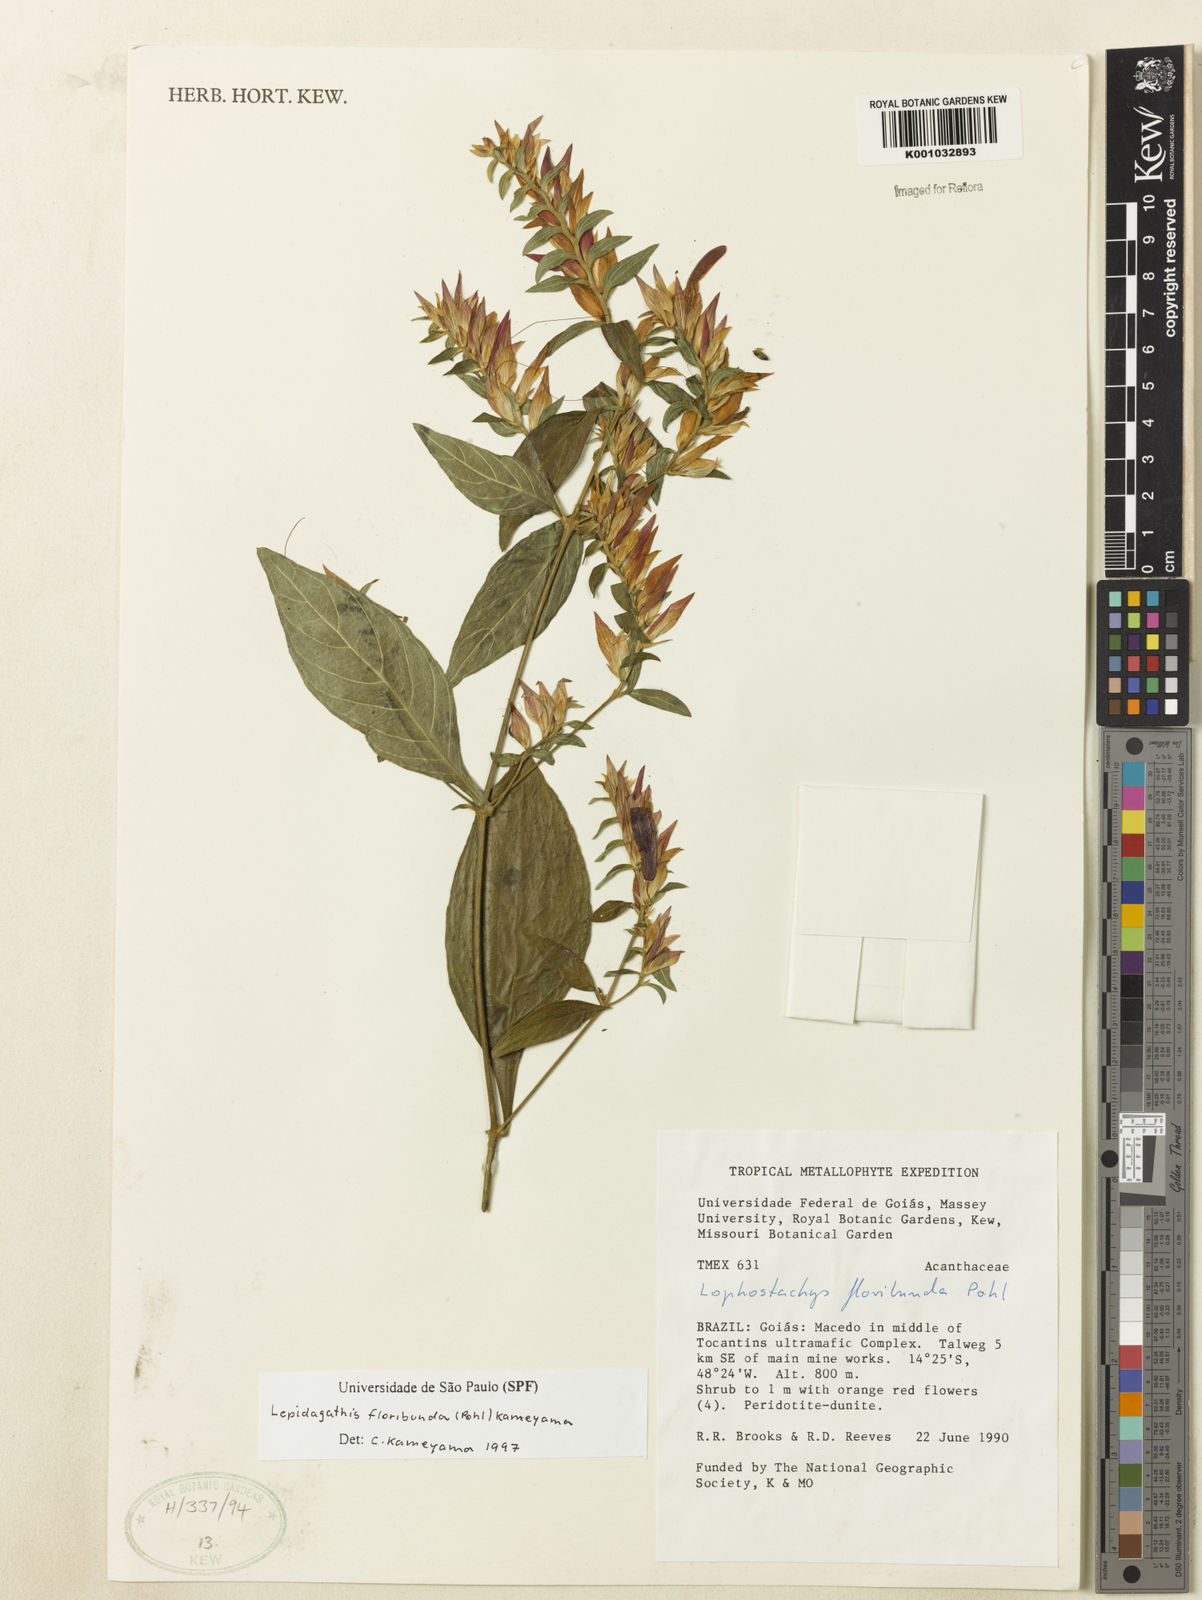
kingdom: Plantae
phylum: Tracheophyta
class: Magnoliopsida
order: Lamiales
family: Acanthaceae
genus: Lepidagathis
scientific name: Lepidagathis floribunda
